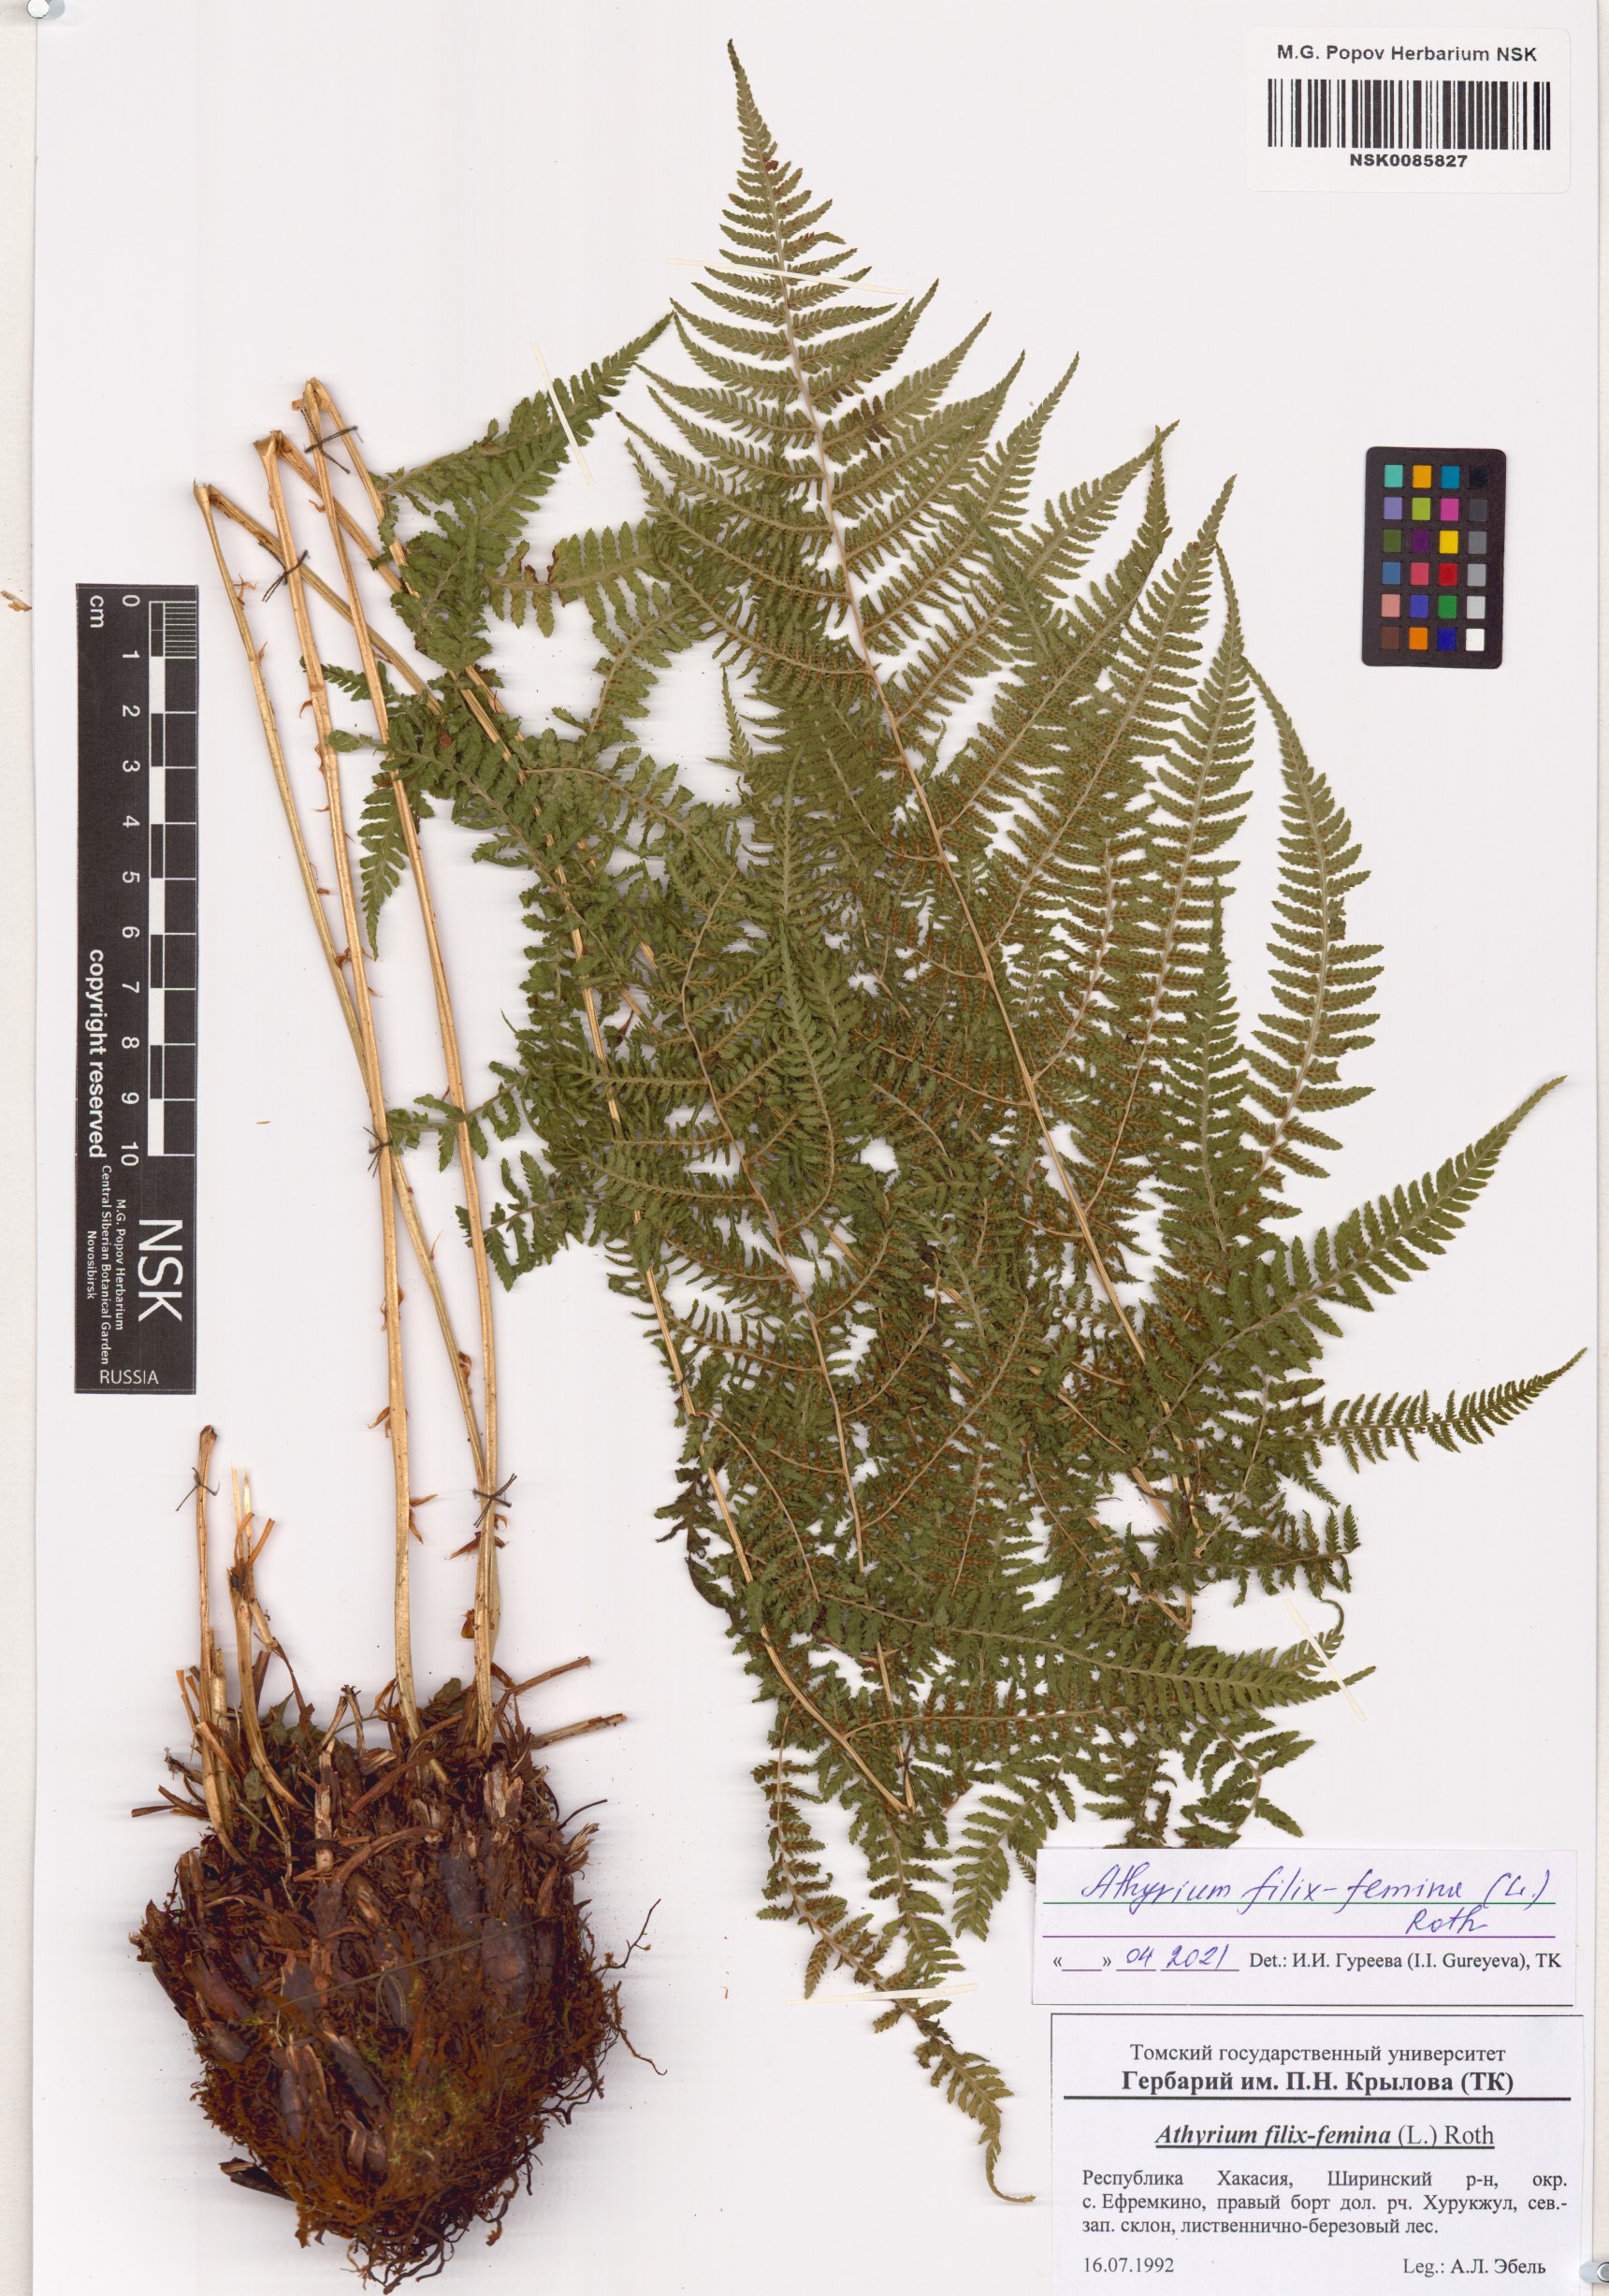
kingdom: Plantae
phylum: Tracheophyta
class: Polypodiopsida
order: Polypodiales
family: Athyriaceae
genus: Athyrium
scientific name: Athyrium filix-femina
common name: Lady fern
